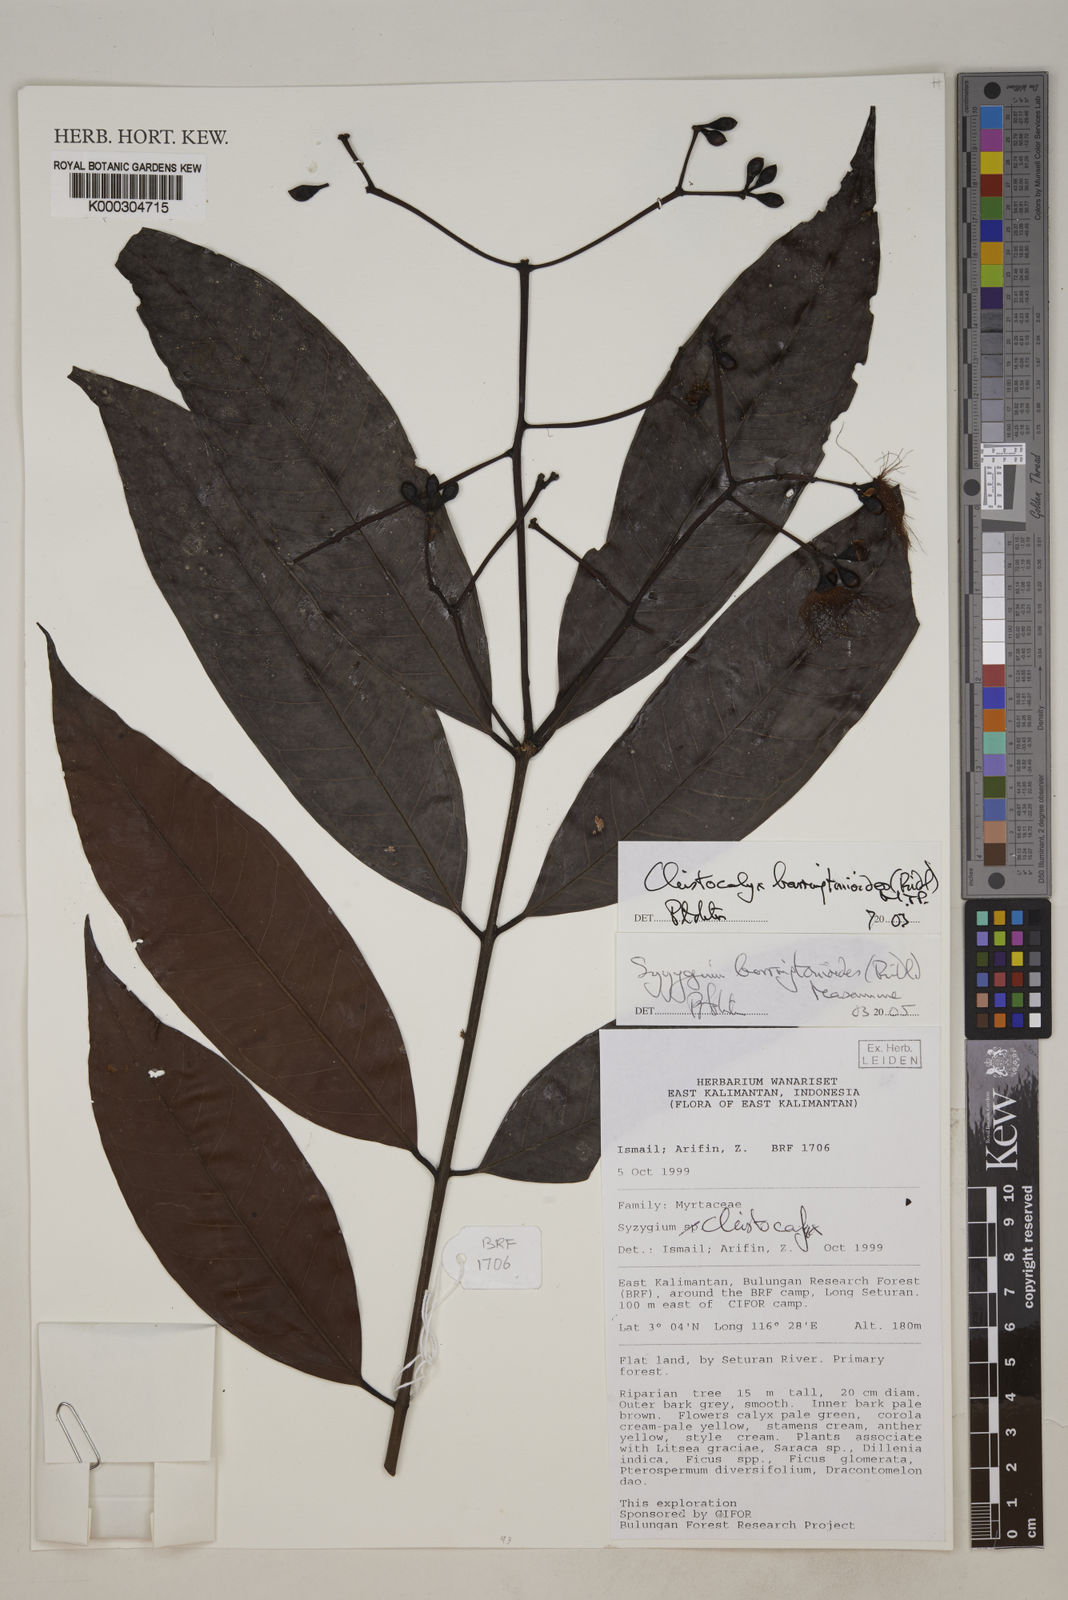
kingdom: Plantae
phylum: Tracheophyta
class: Magnoliopsida
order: Myrtales
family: Myrtaceae
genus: Syzygium
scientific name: Syzygium barringtonioides
